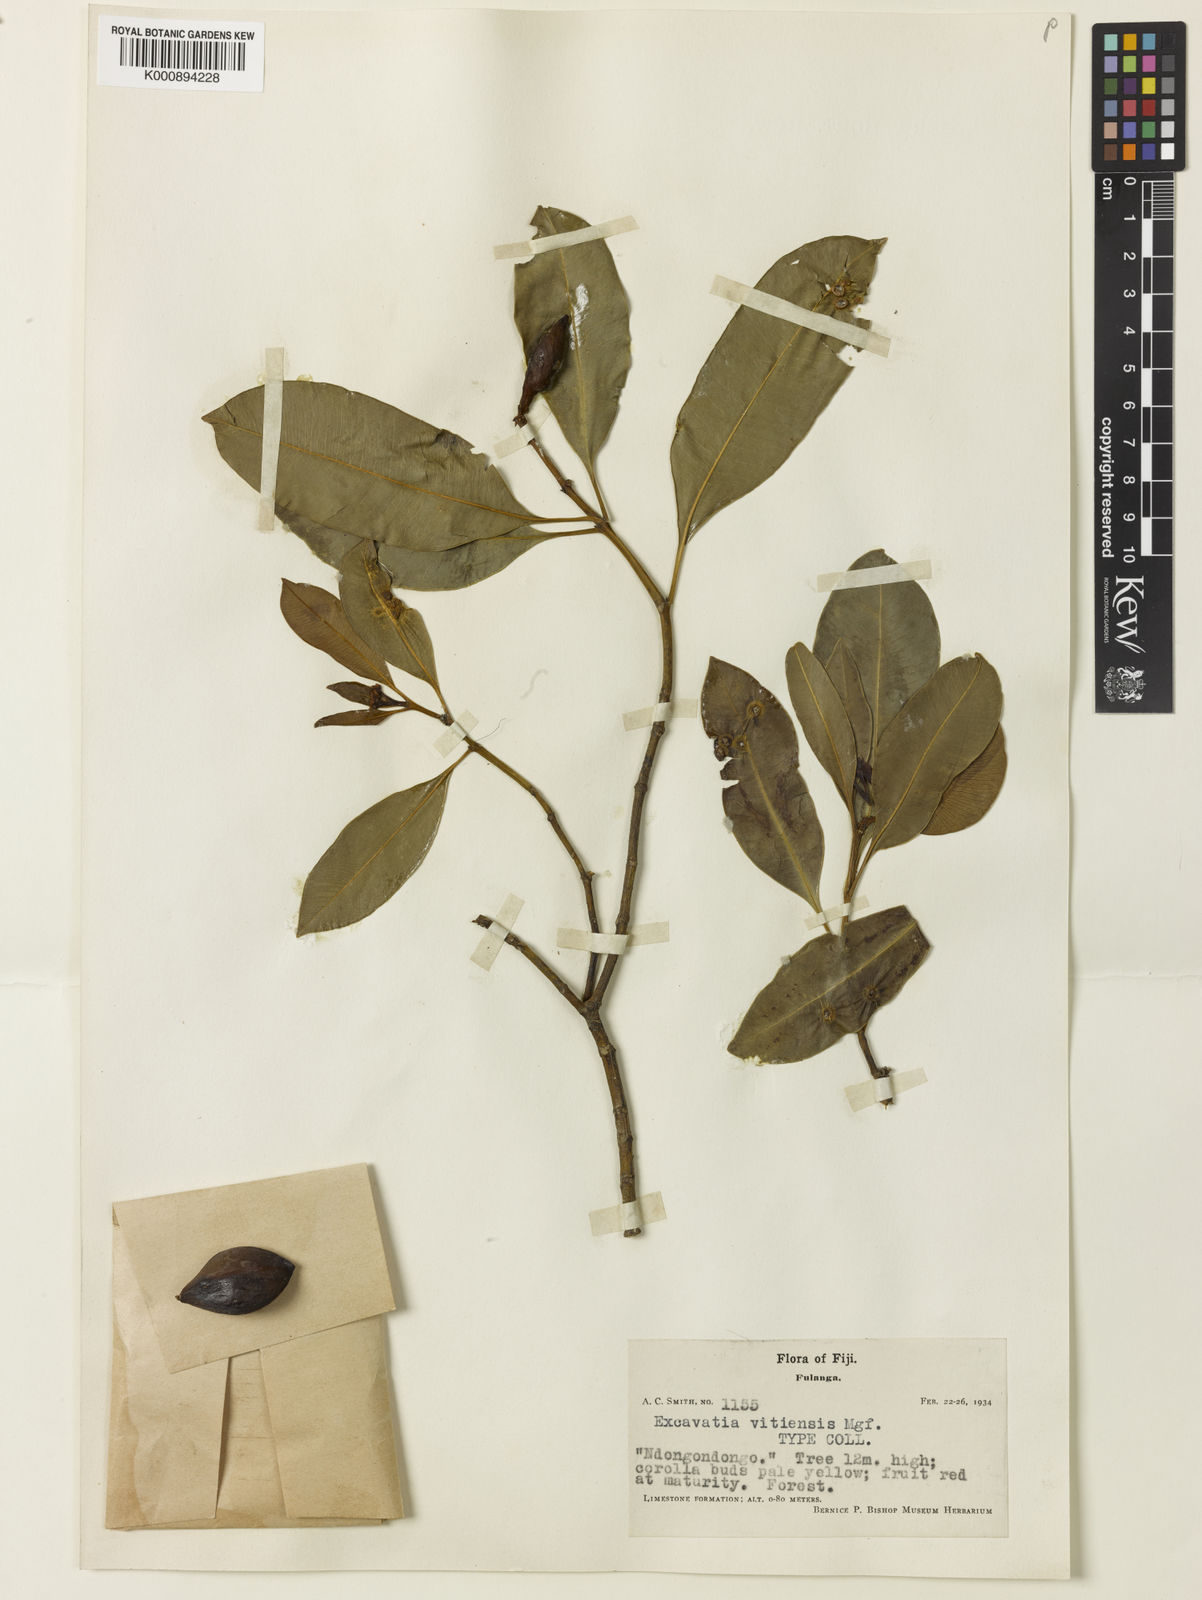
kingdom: Plantae
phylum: Tracheophyta
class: Magnoliopsida
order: Gentianales
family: Apocynaceae
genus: Ochrosia
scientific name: Ochrosia vitiensis
